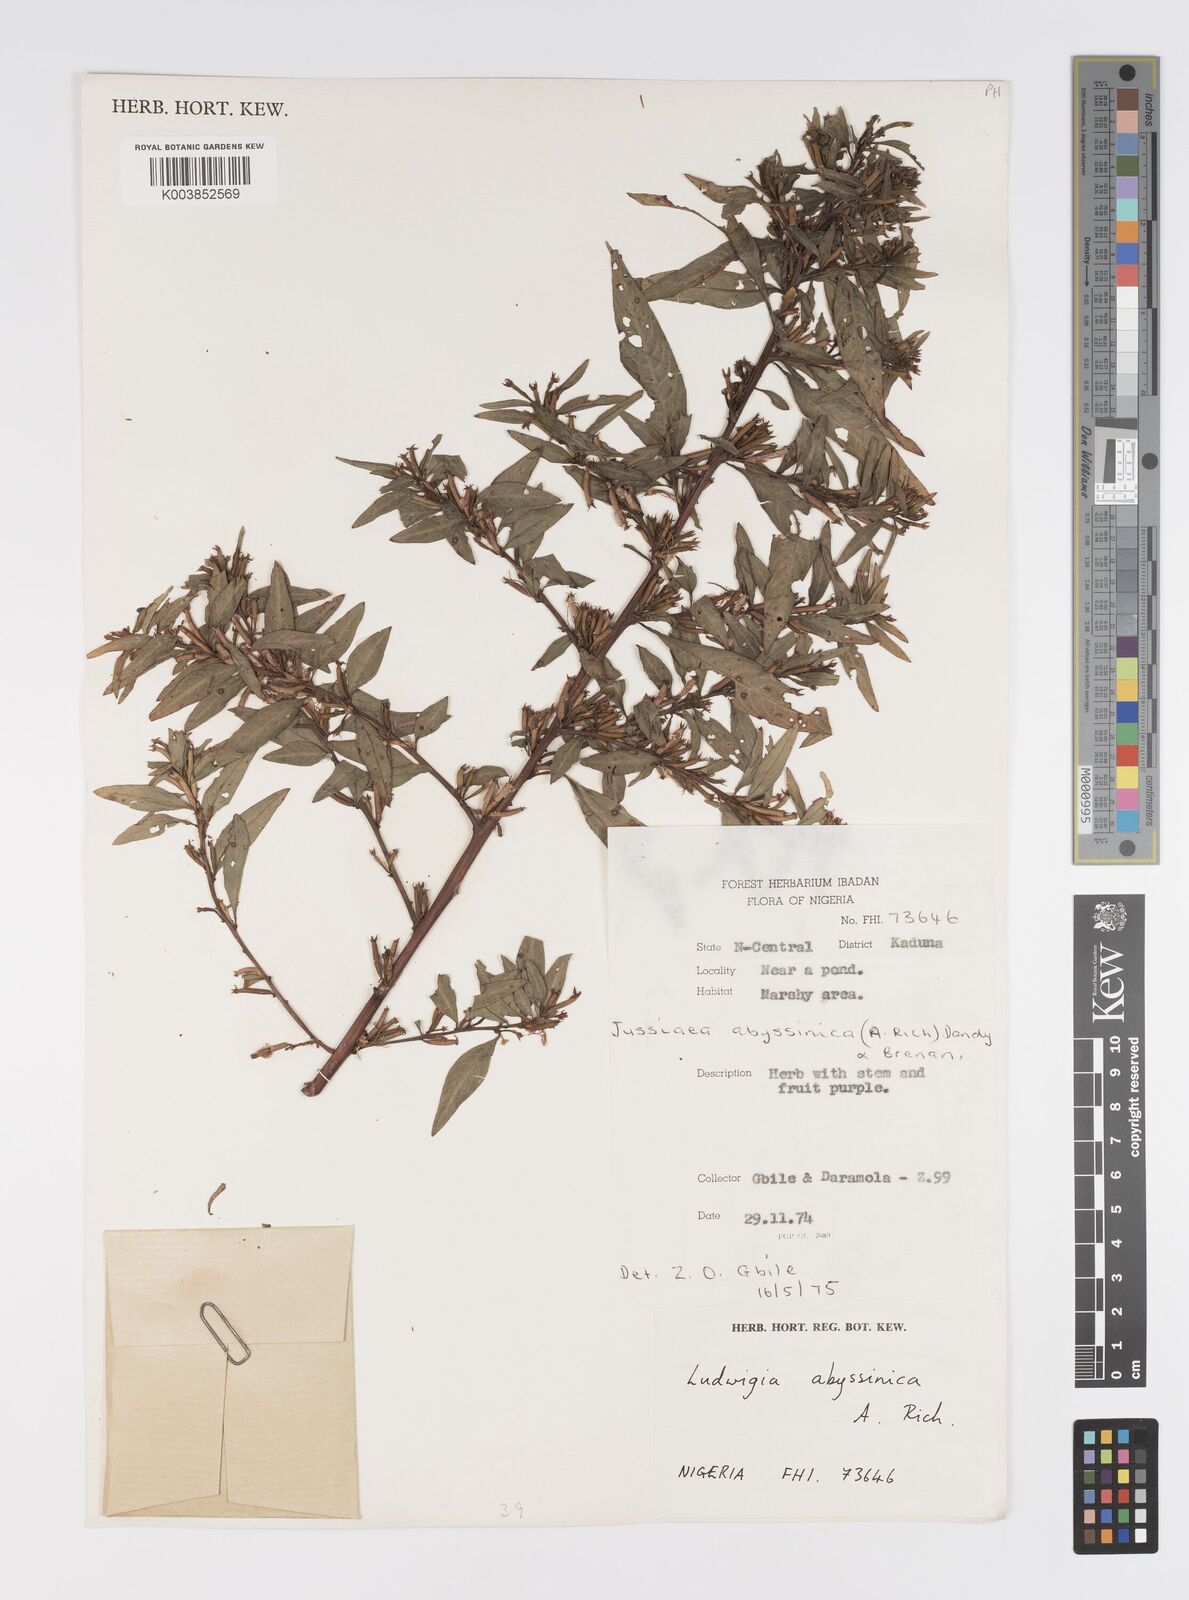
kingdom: Plantae
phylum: Tracheophyta
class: Magnoliopsida
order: Myrtales
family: Onagraceae
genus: Ludwigia
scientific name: Ludwigia abyssinica
